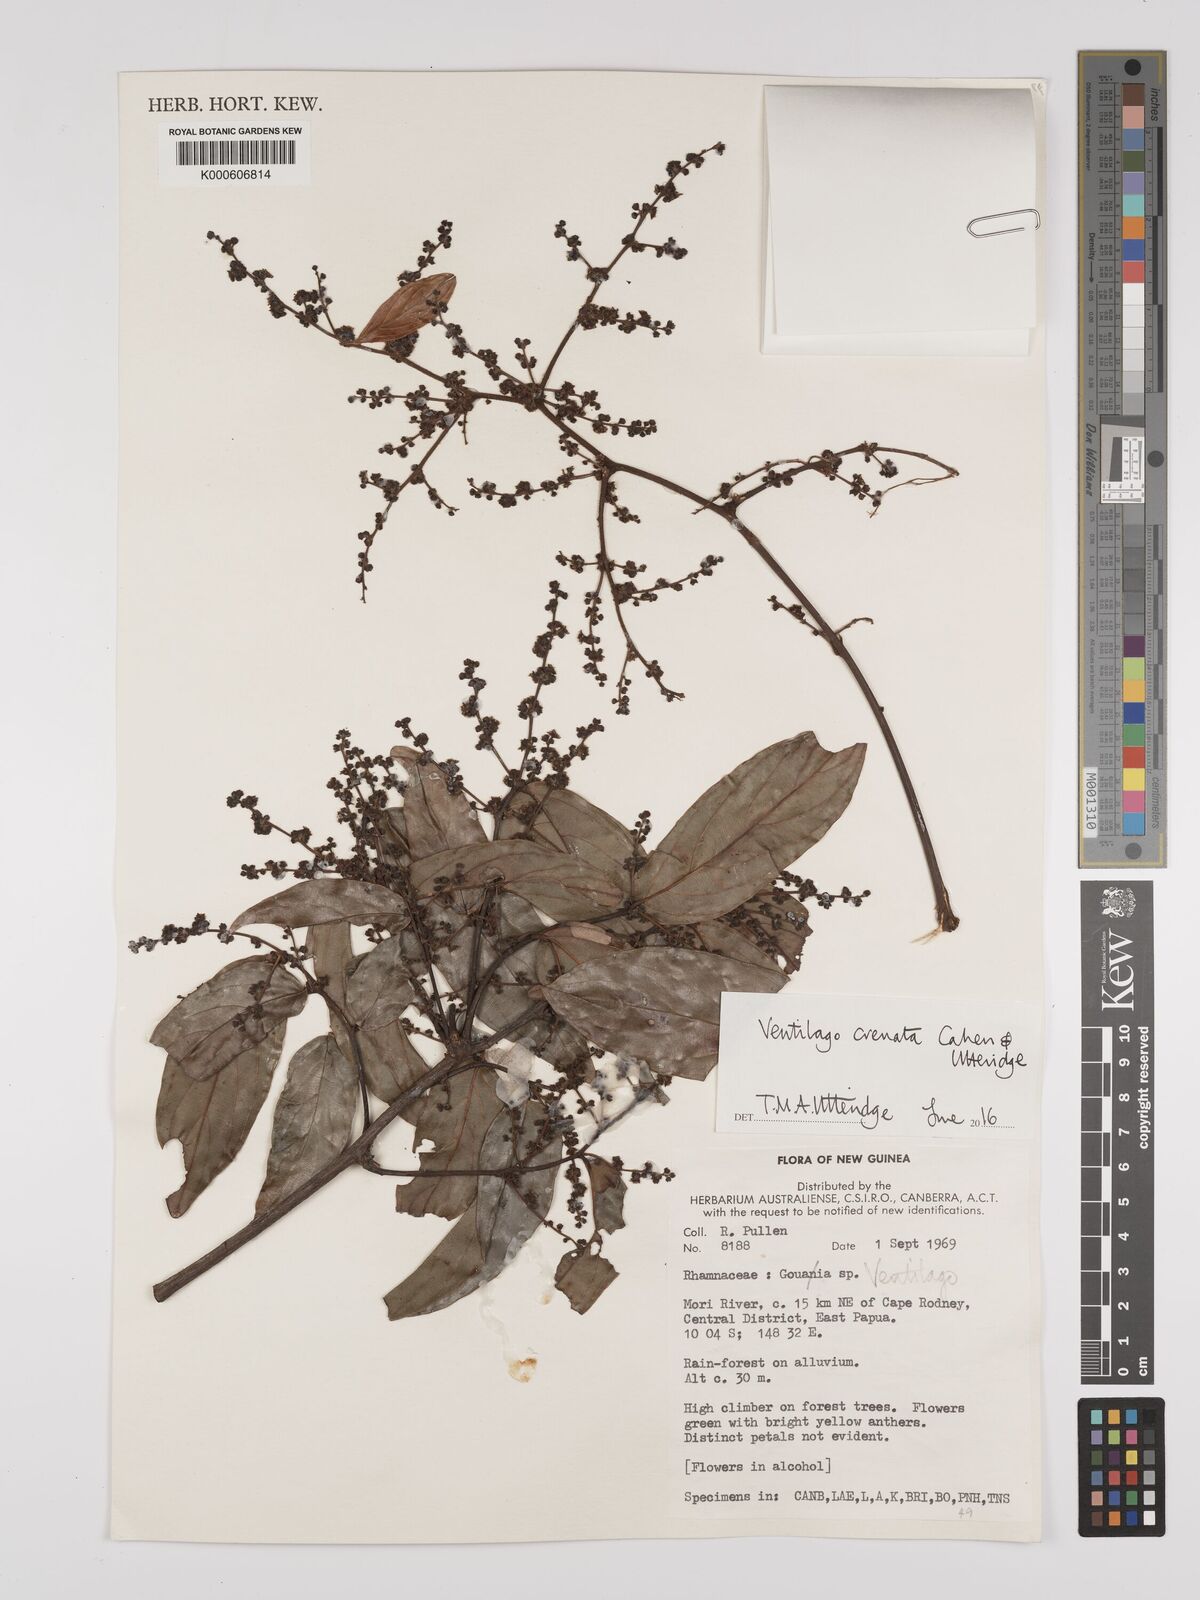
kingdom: Plantae
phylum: Tracheophyta
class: Magnoliopsida
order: Rosales
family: Rhamnaceae
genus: Ventilago
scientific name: Ventilago crenata
